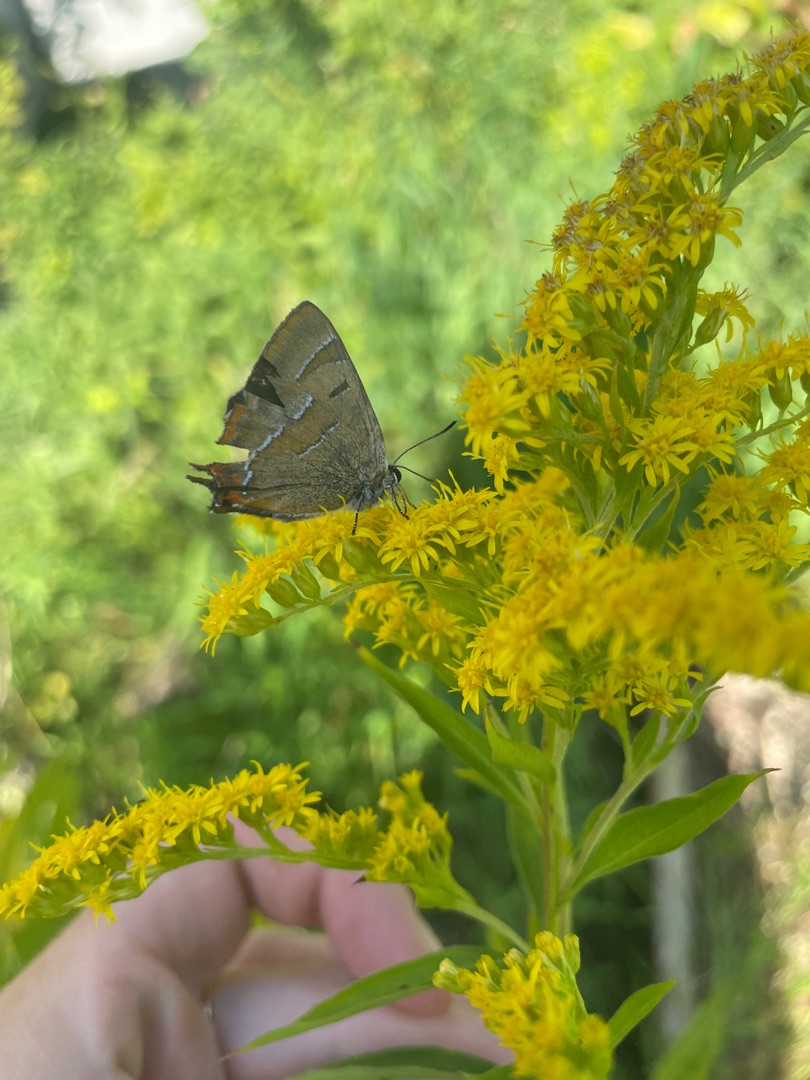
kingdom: Animalia
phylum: Arthropoda
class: Insecta
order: Lepidoptera
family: Lycaenidae
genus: Thecla
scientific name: Thecla betulae
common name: Guldhale
